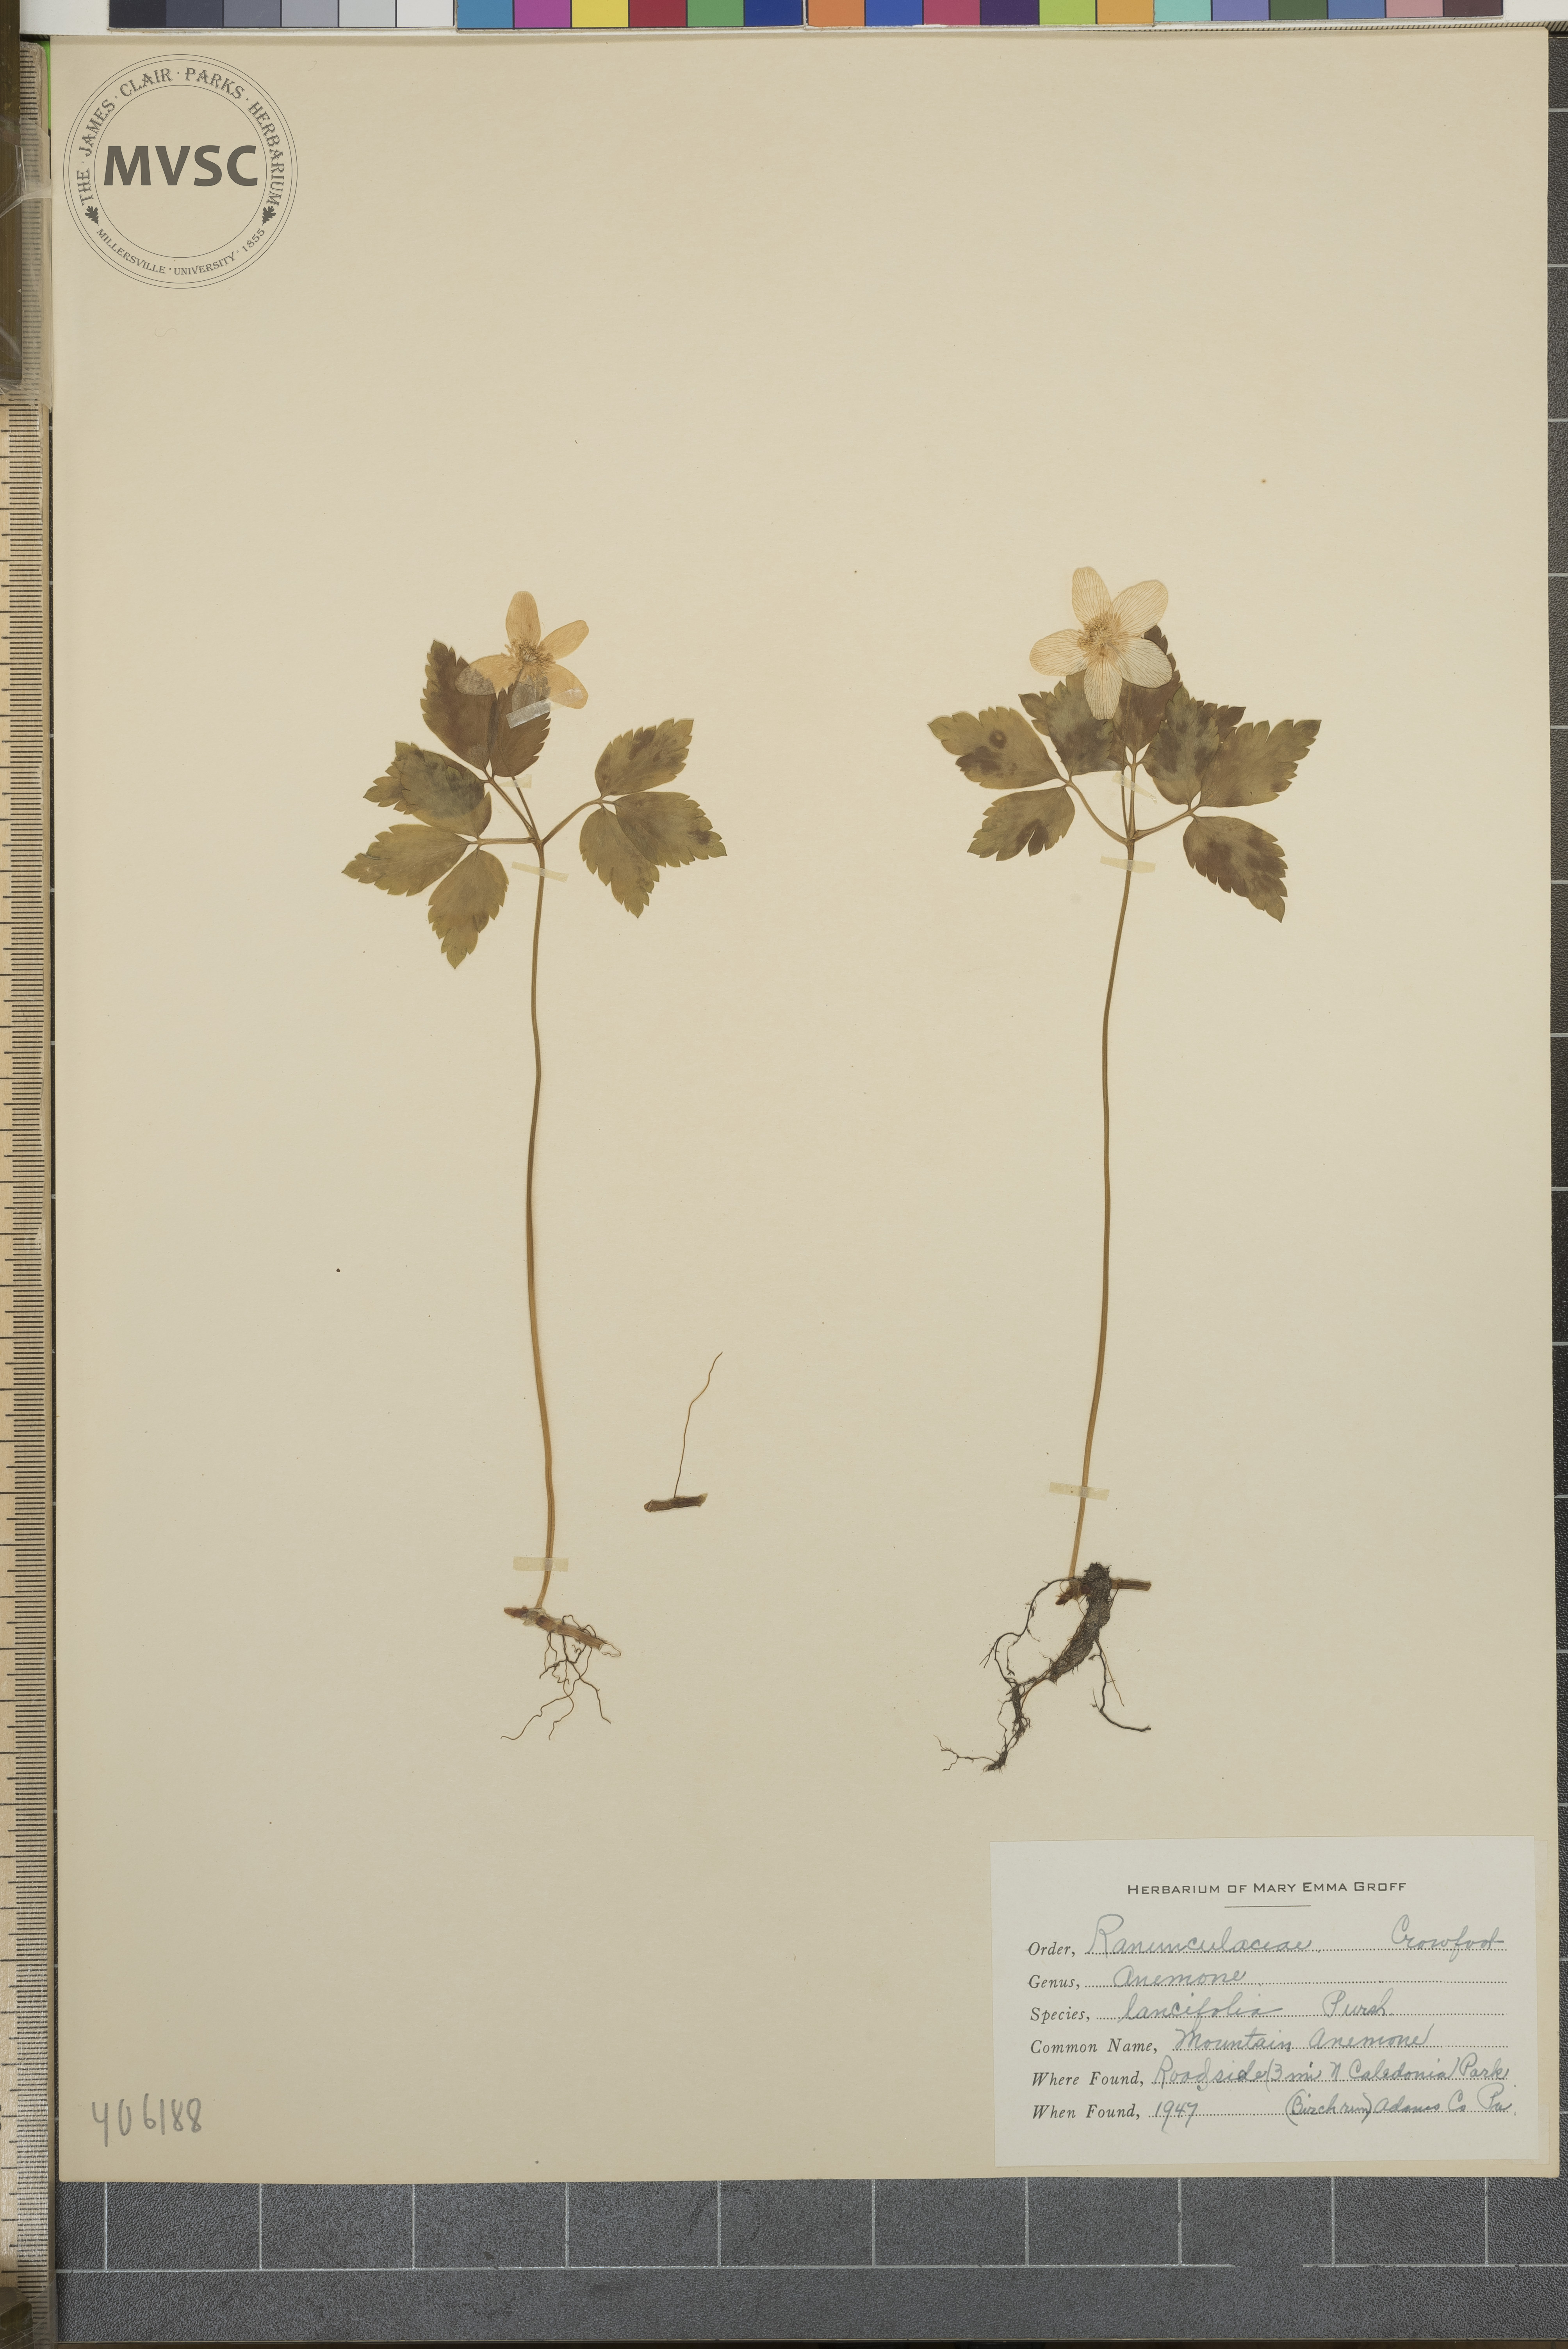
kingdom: Plantae
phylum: Tracheophyta
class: Magnoliopsida
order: Ranunculales
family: Ranunculaceae
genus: Anemone
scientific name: Anemone quinquefolia
